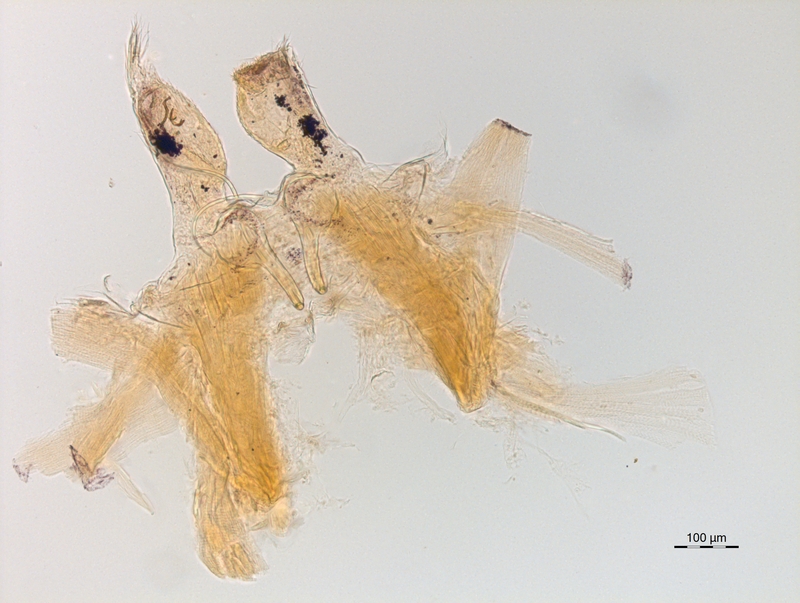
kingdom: Animalia
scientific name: Animalia
